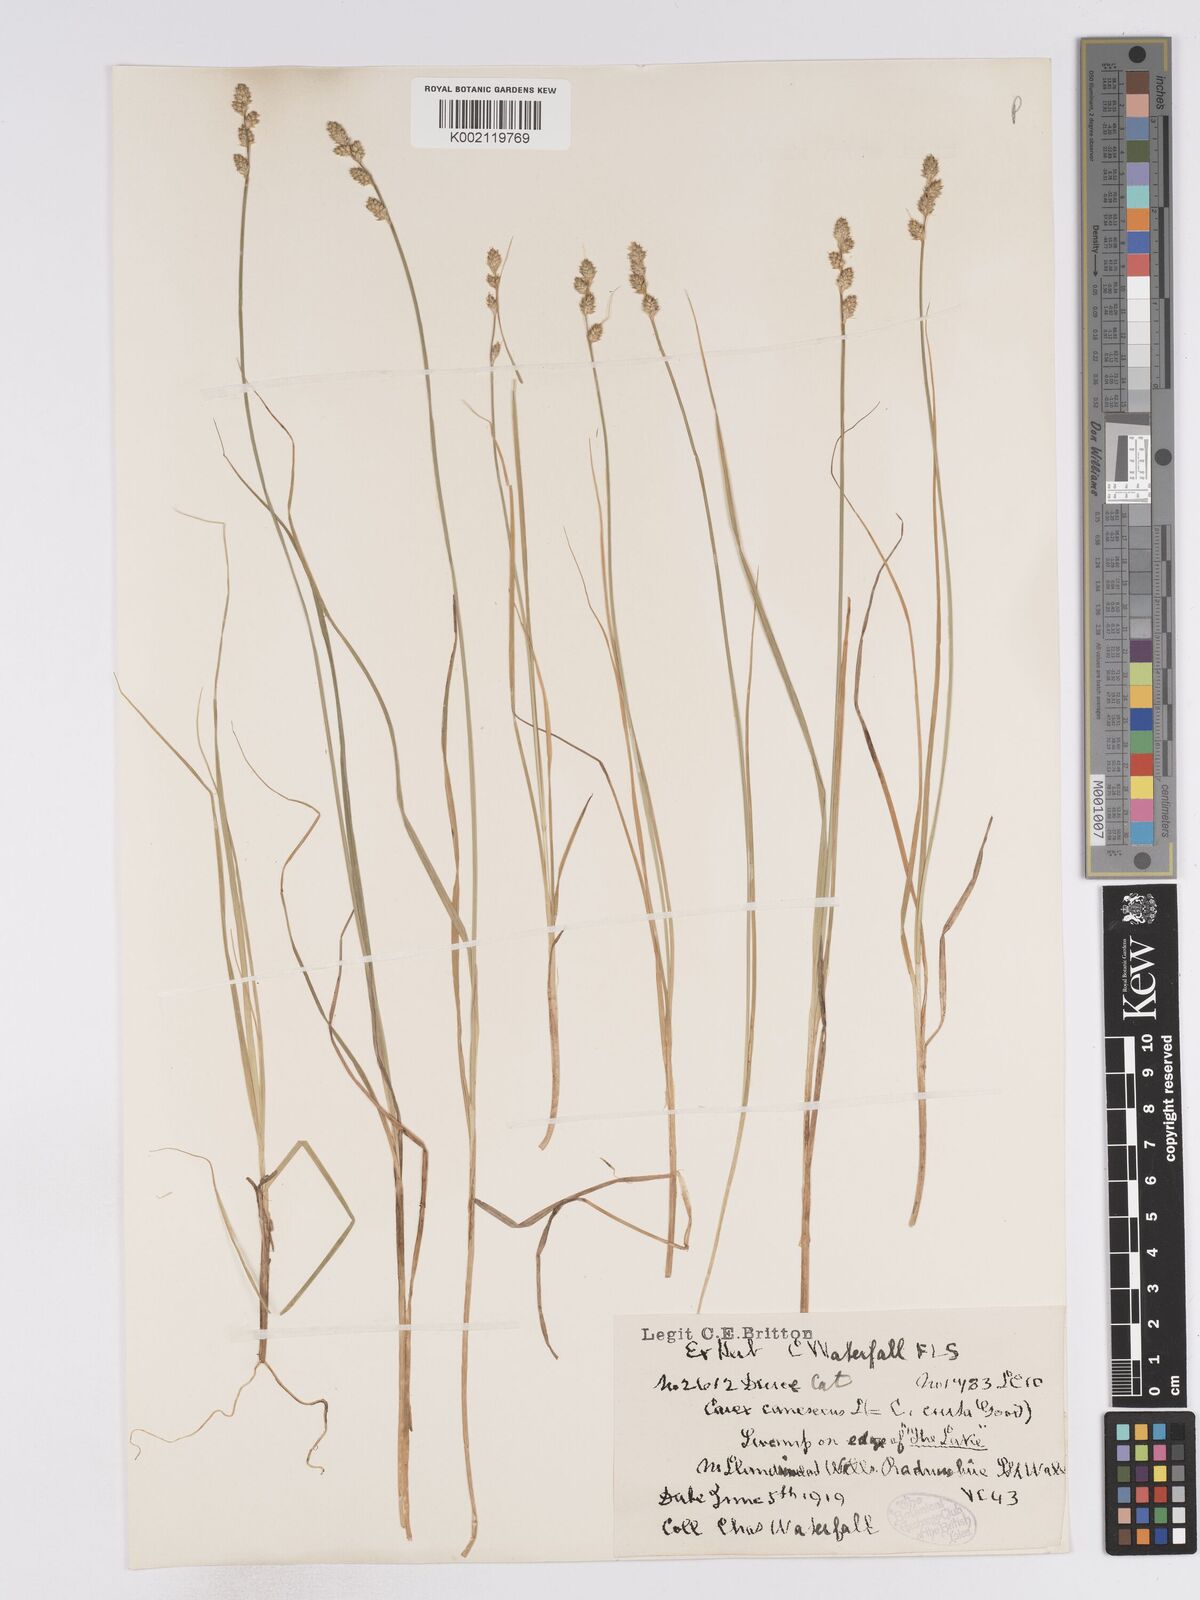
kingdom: Plantae
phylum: Tracheophyta
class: Liliopsida
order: Poales
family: Cyperaceae
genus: Carex
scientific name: Carex curta
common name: White sedge
